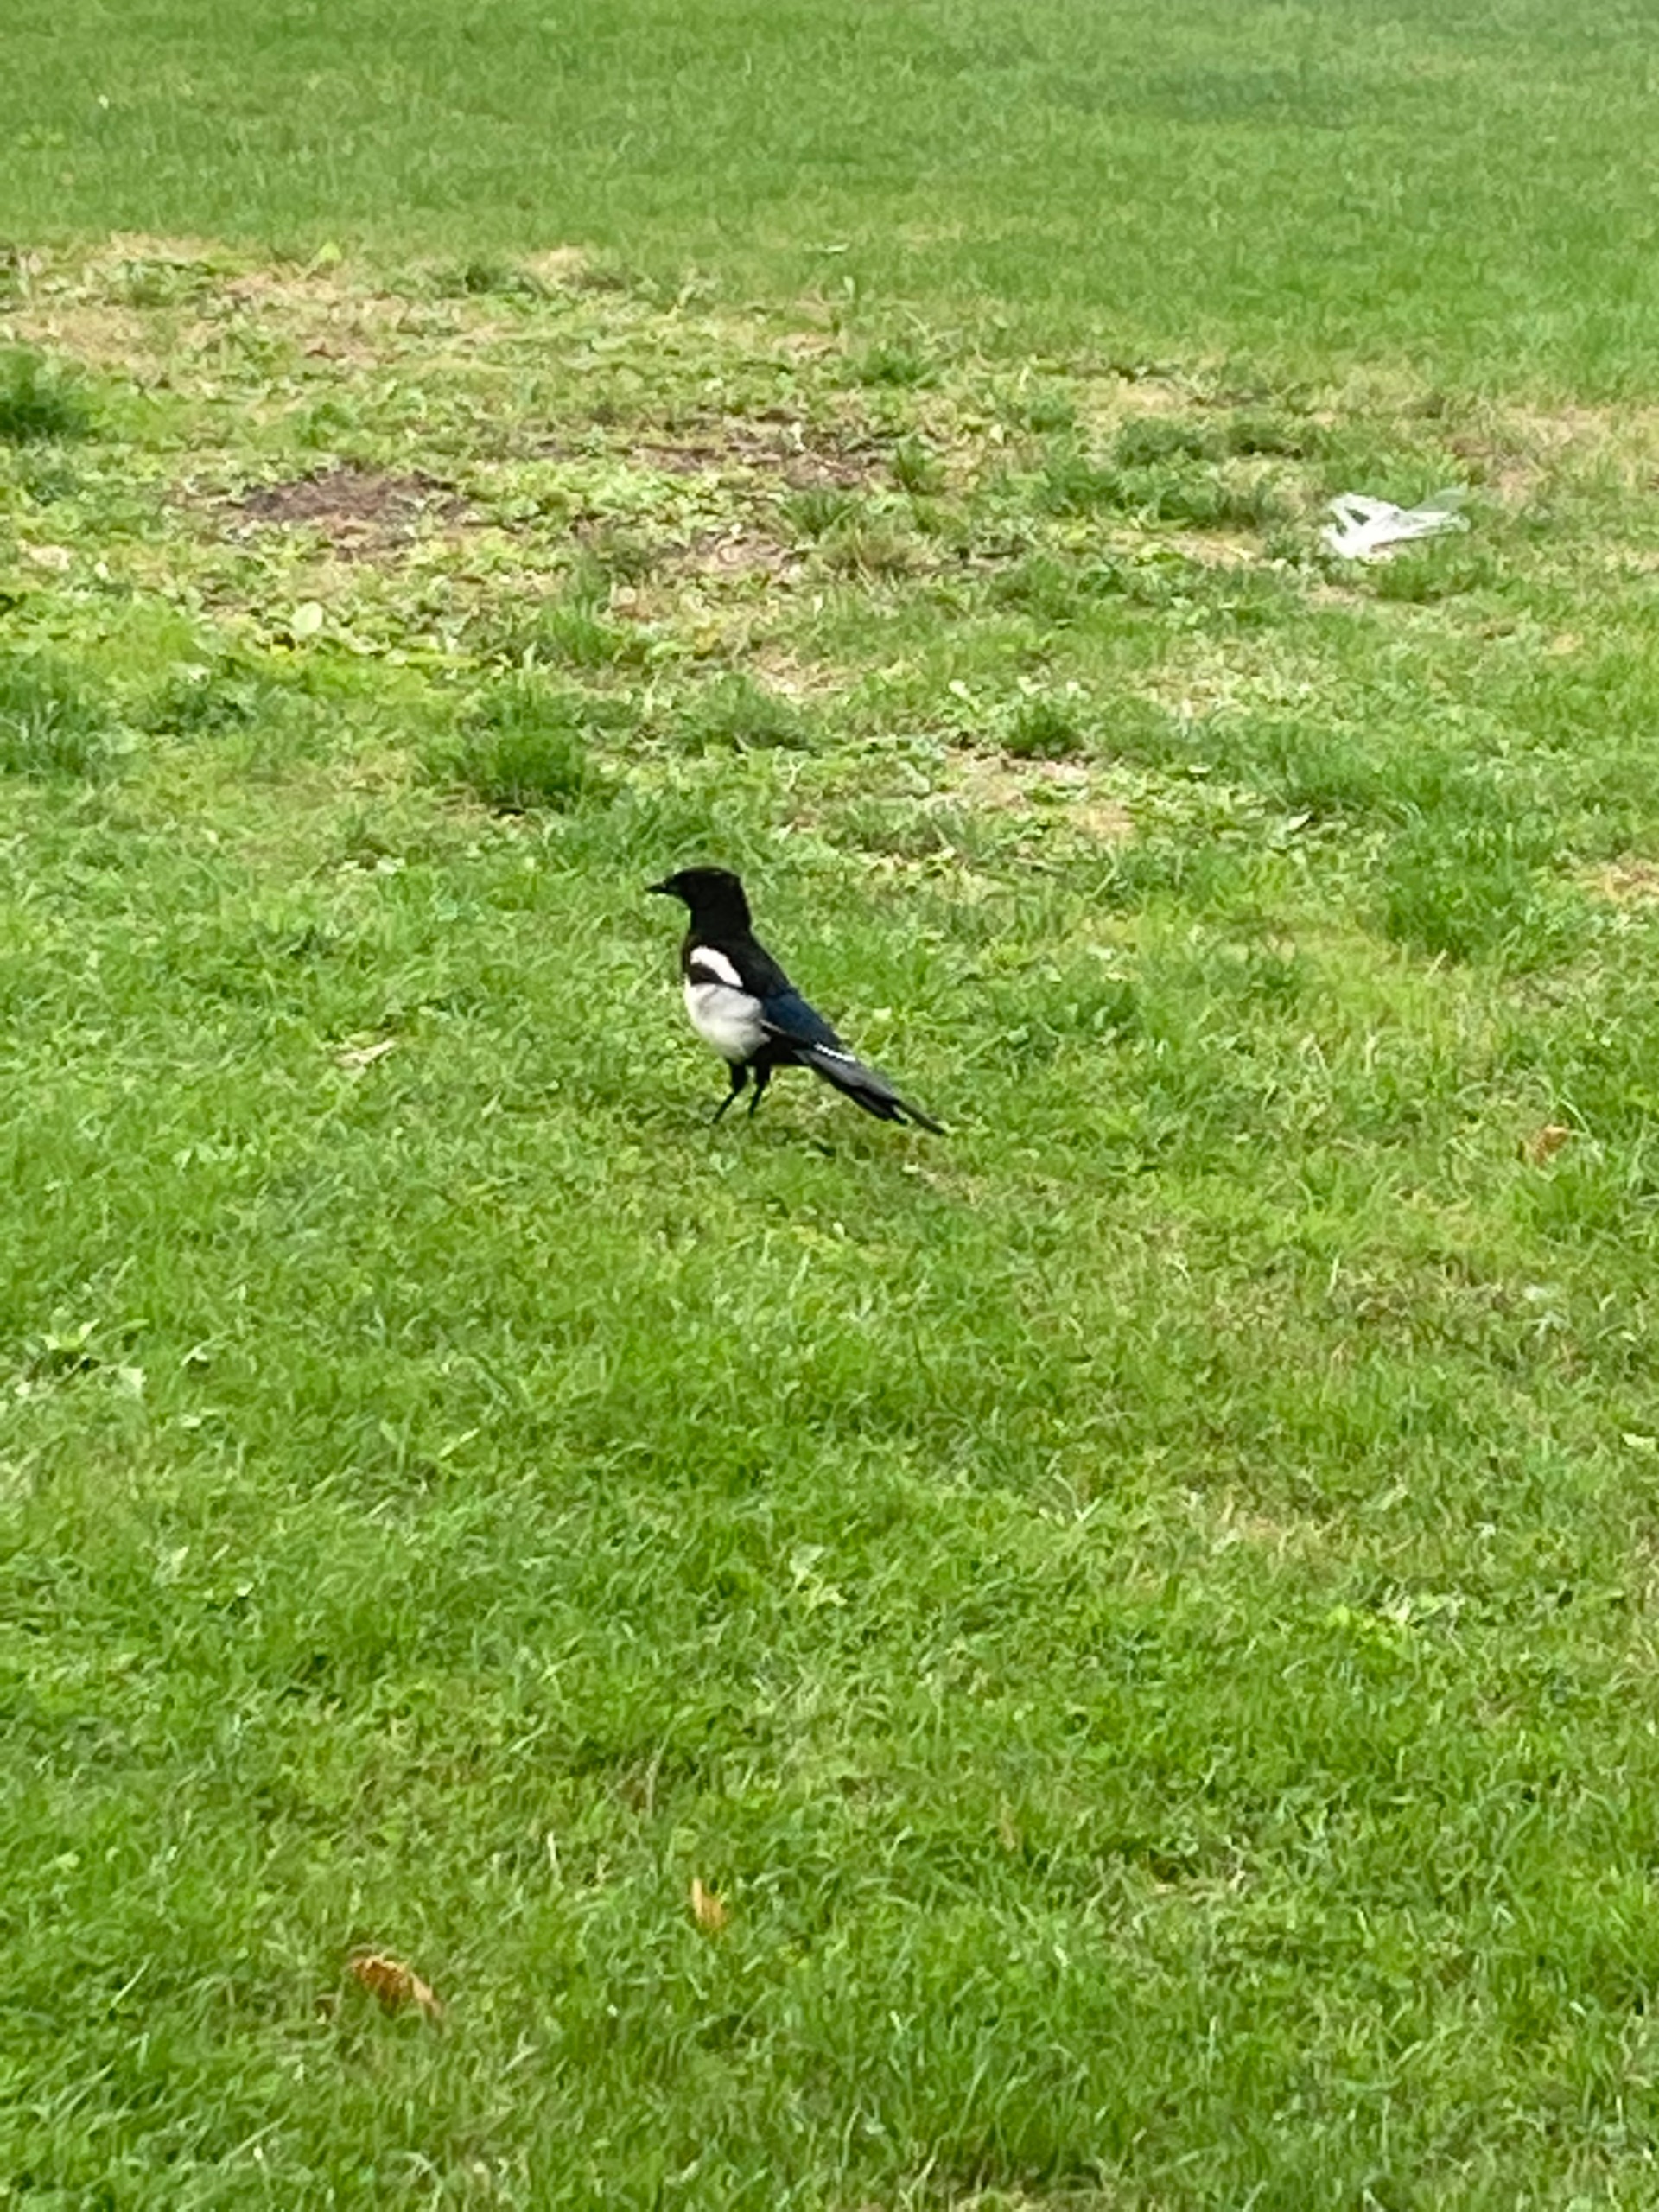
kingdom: Animalia
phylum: Chordata
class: Aves
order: Passeriformes
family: Corvidae
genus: Pica
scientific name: Pica pica
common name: Husskade
